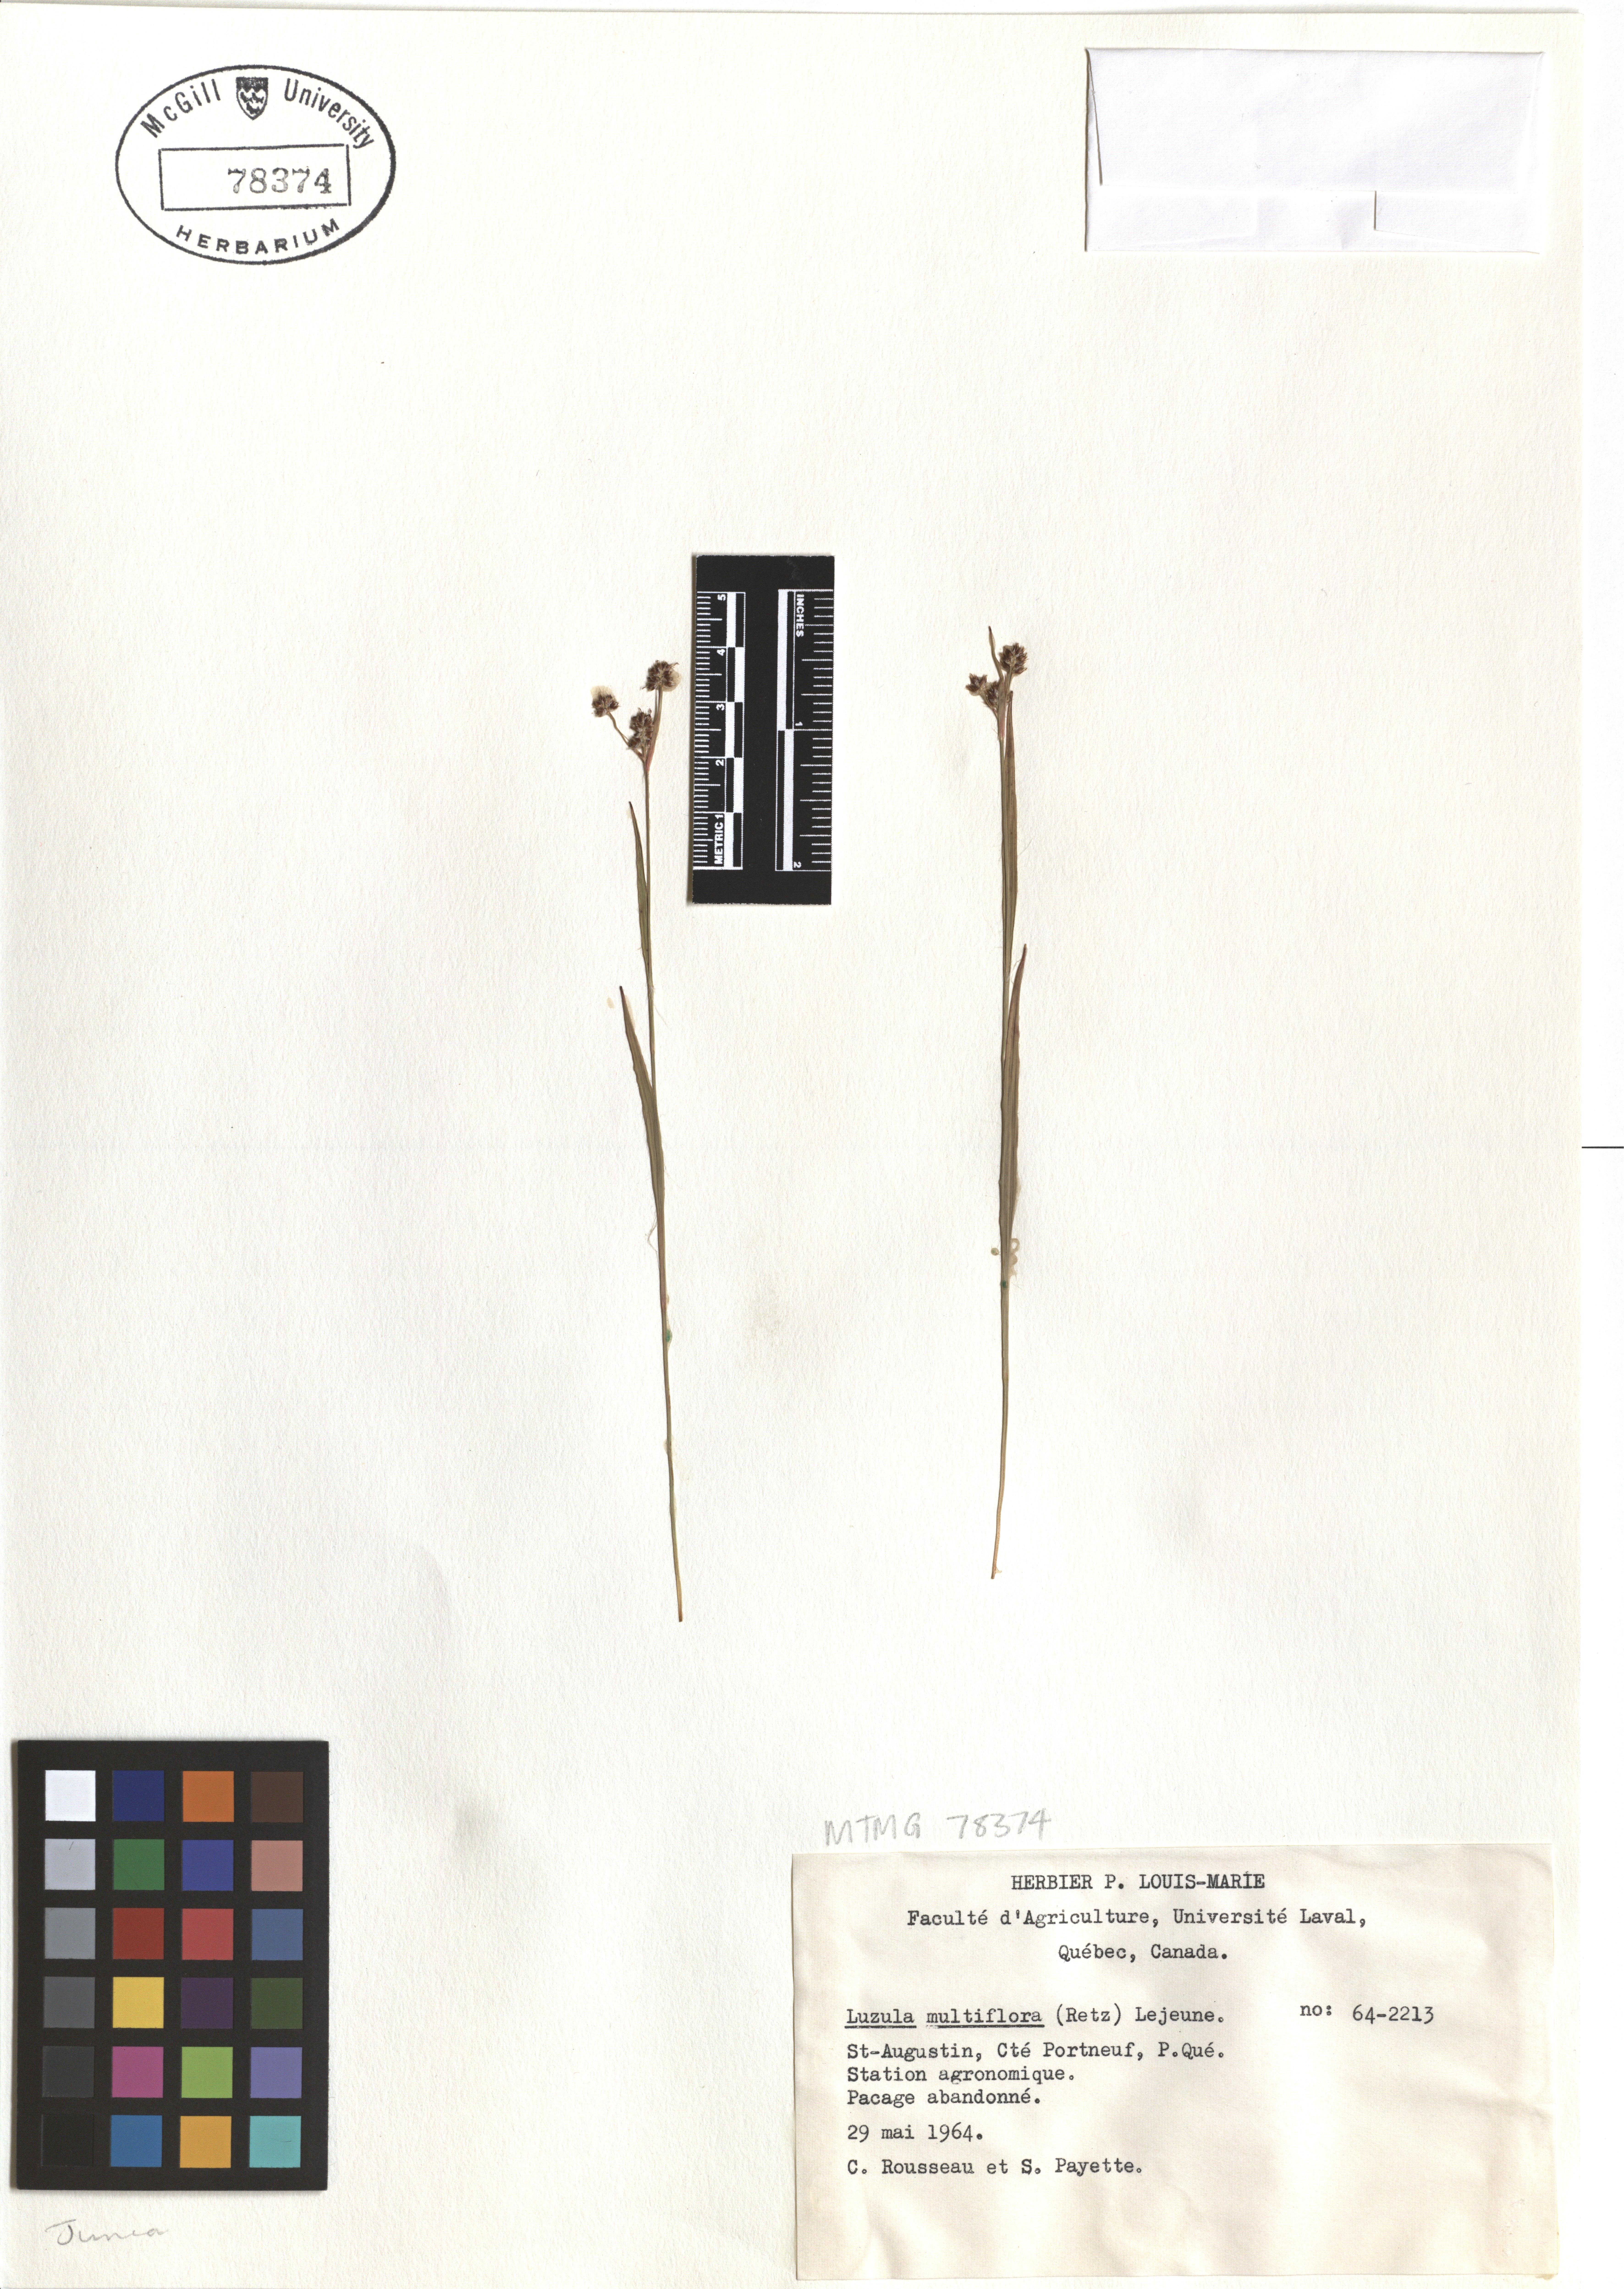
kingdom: Plantae
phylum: Tracheophyta
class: Liliopsida
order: Poales
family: Juncaceae
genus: Luzula
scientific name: Luzula multiflora
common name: Heath wood-rush
